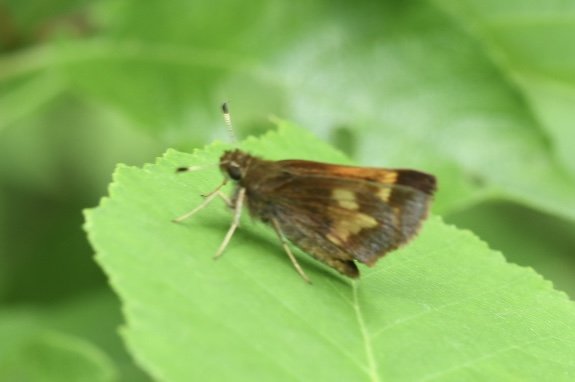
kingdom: Animalia
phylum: Arthropoda
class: Insecta
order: Lepidoptera
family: Hesperiidae
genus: Lon
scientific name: Lon hobomok
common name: Hobomok Skipper
